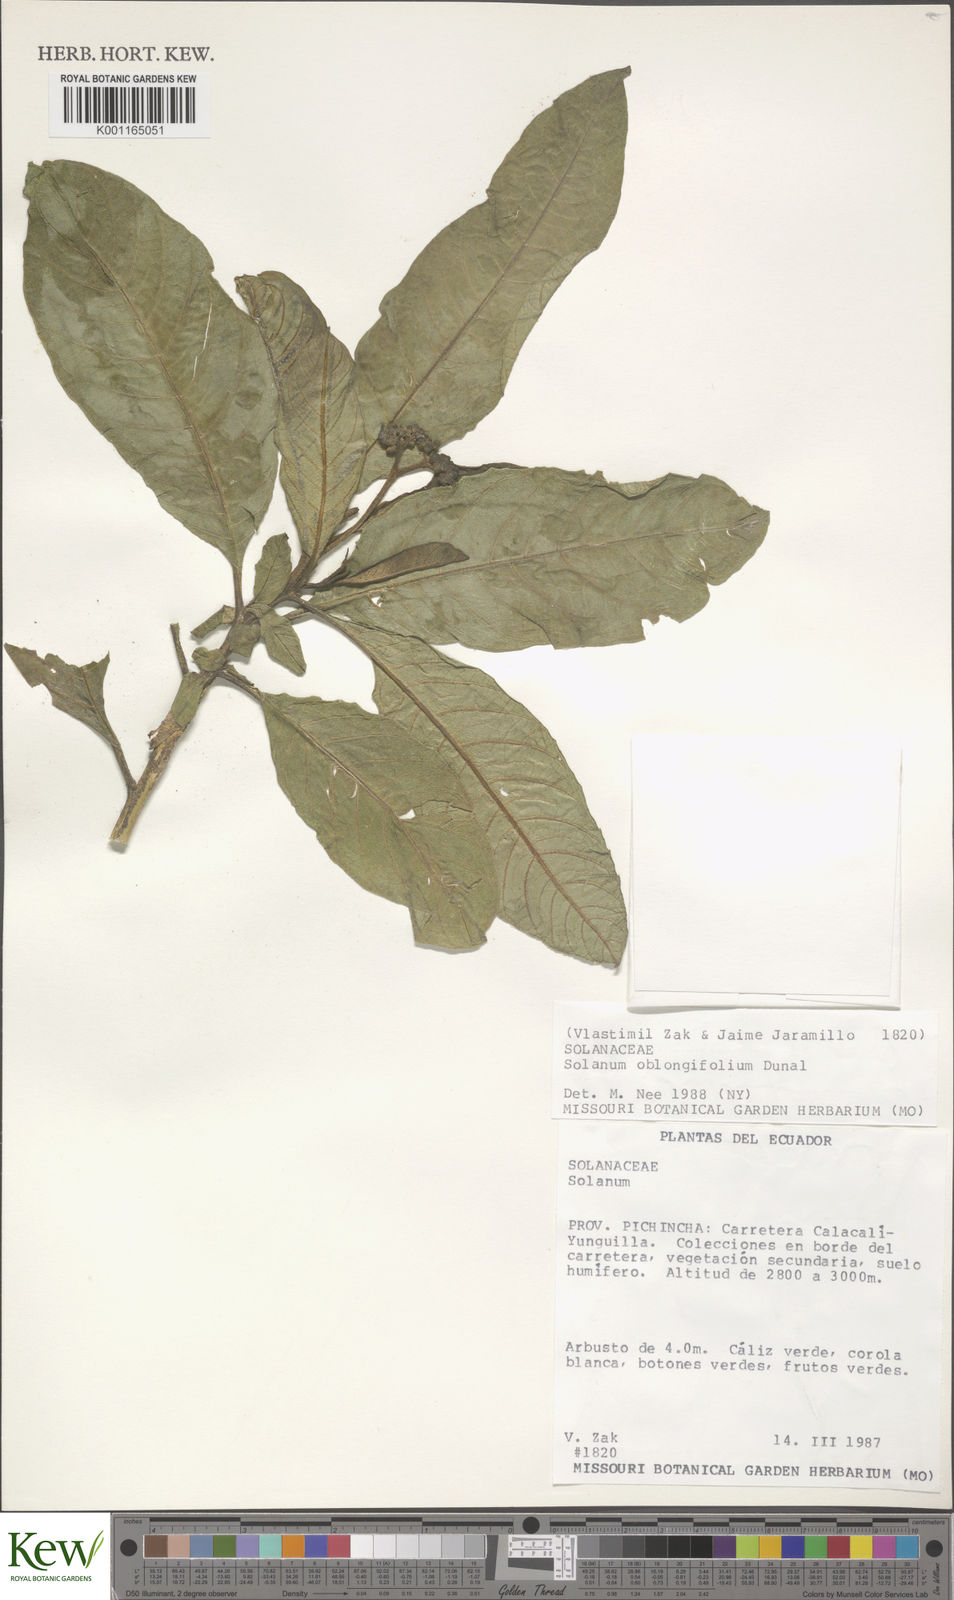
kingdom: Plantae
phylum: Tracheophyta
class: Magnoliopsida
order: Solanales
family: Solanaceae
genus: Solanum
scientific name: Solanum oblongifolium
